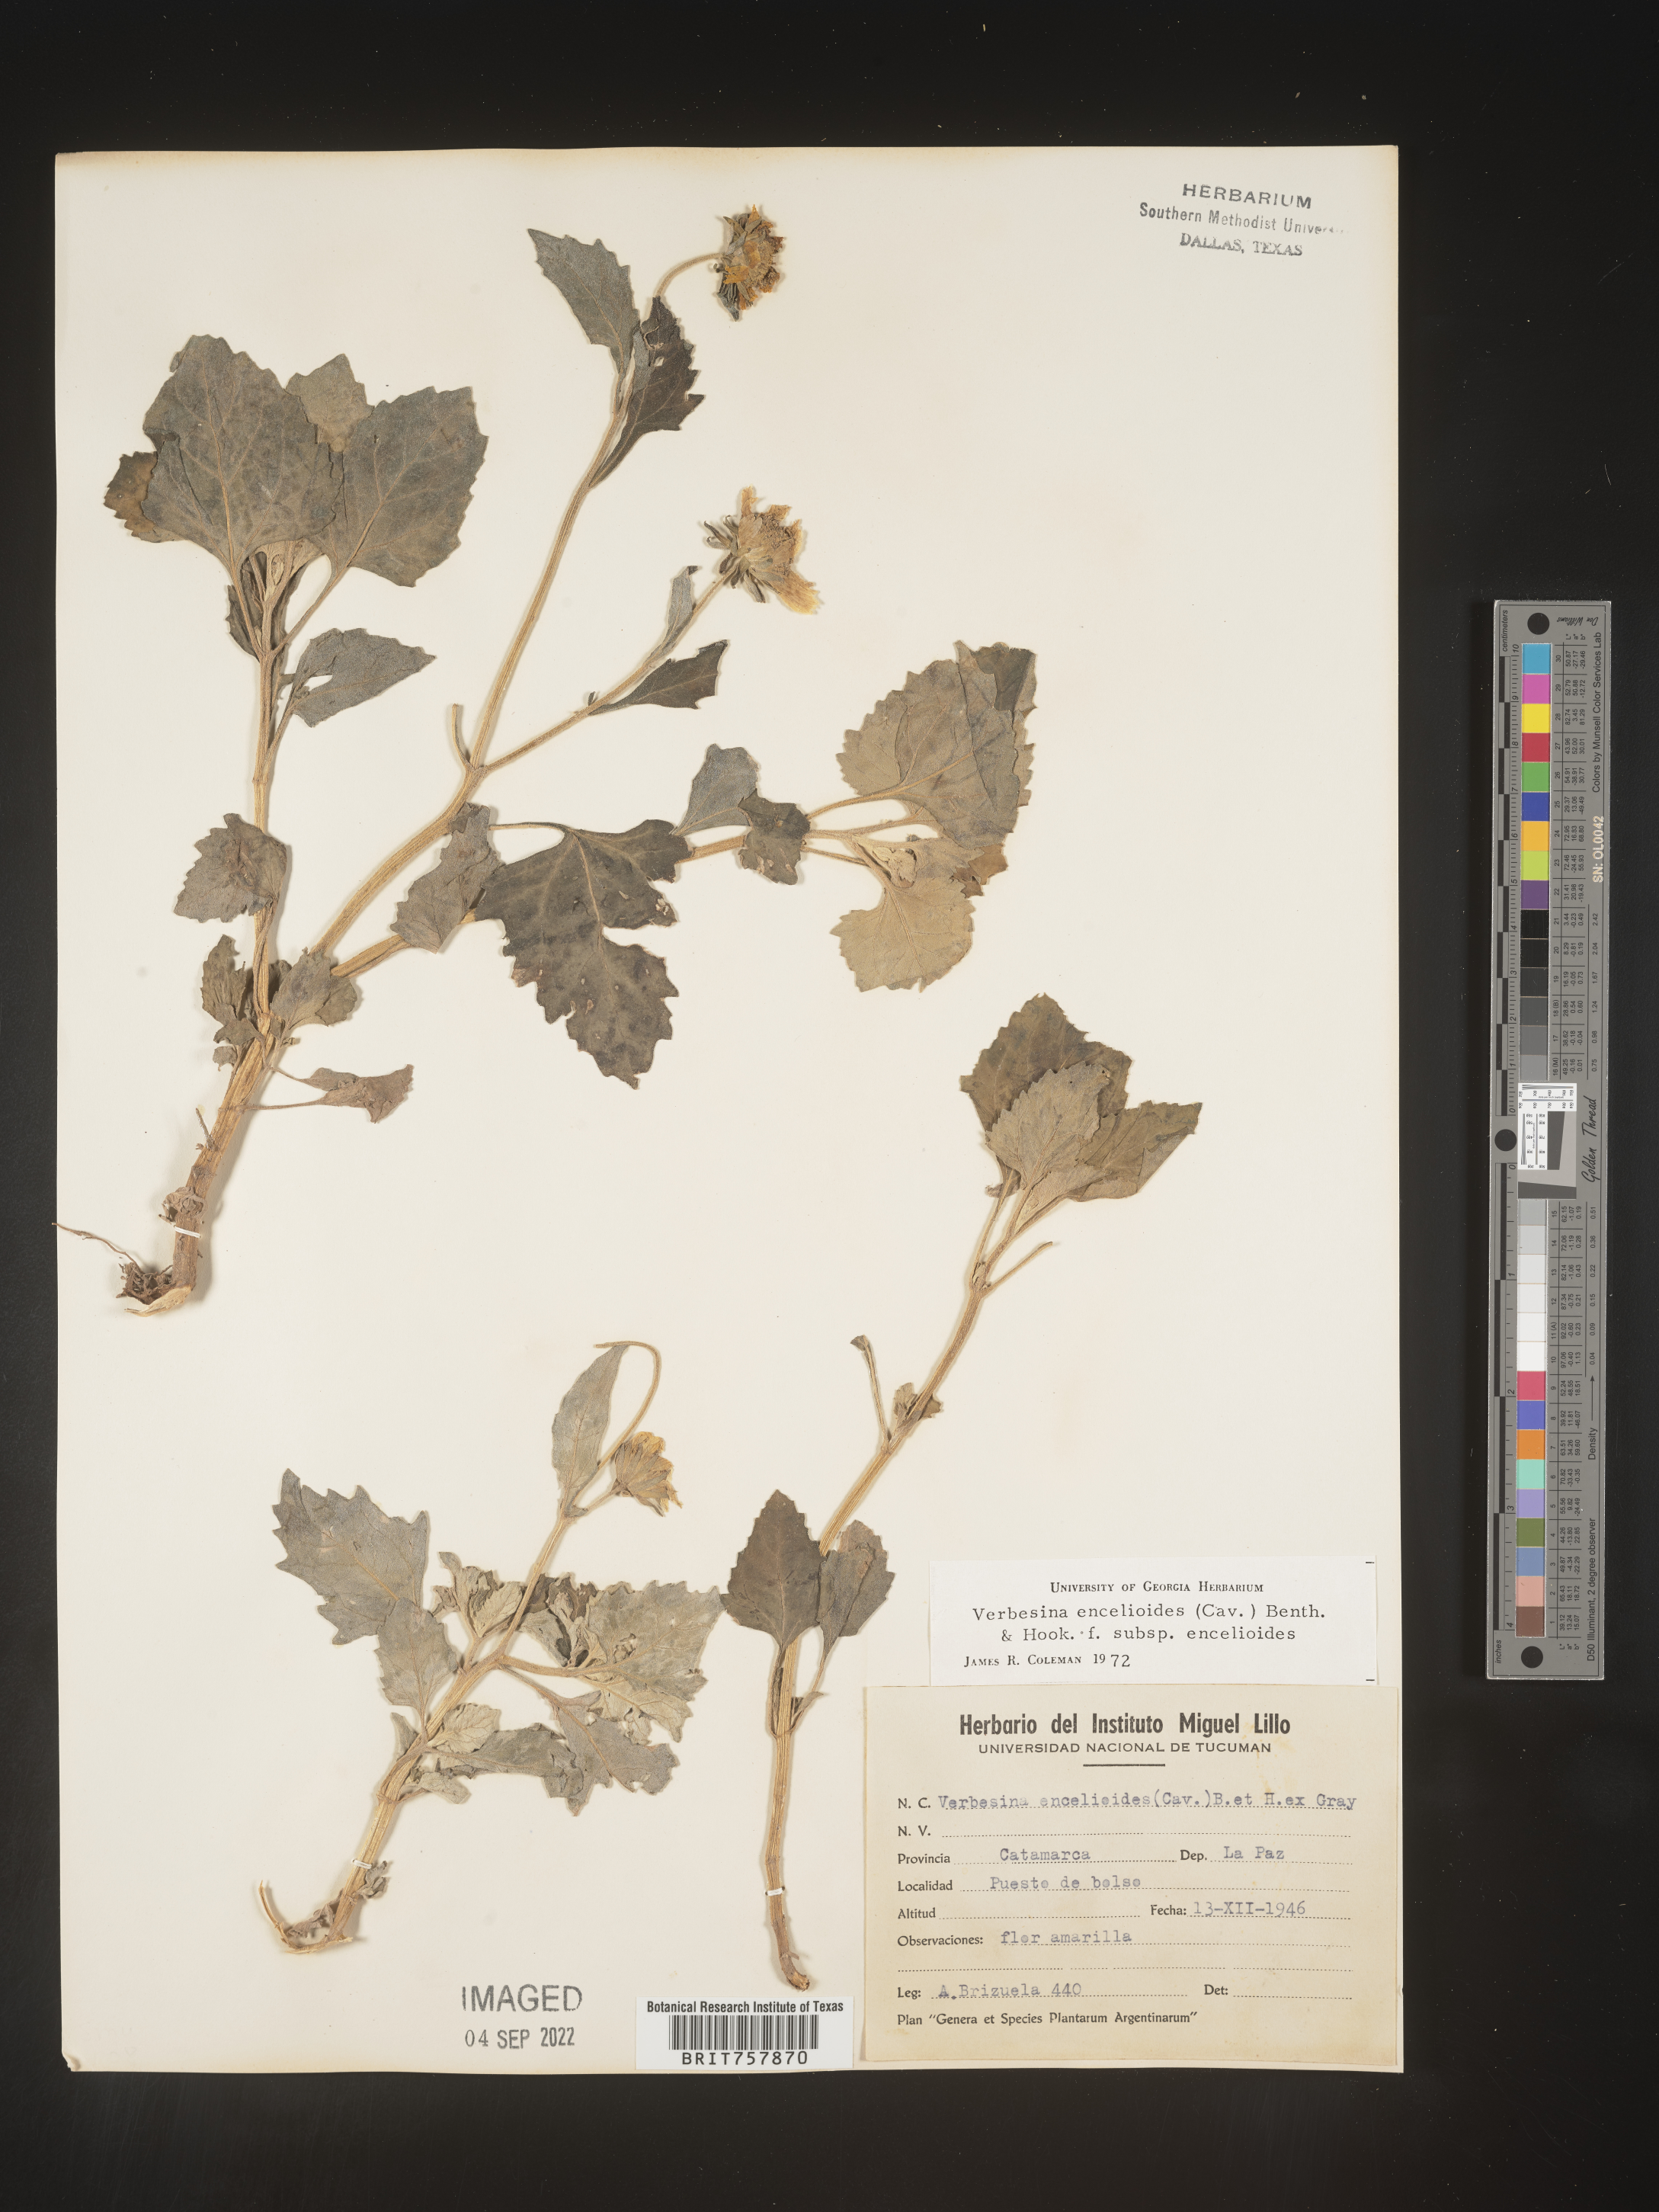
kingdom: Plantae
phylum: Tracheophyta
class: Magnoliopsida
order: Asterales
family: Asteraceae
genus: Verbesina
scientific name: Verbesina
